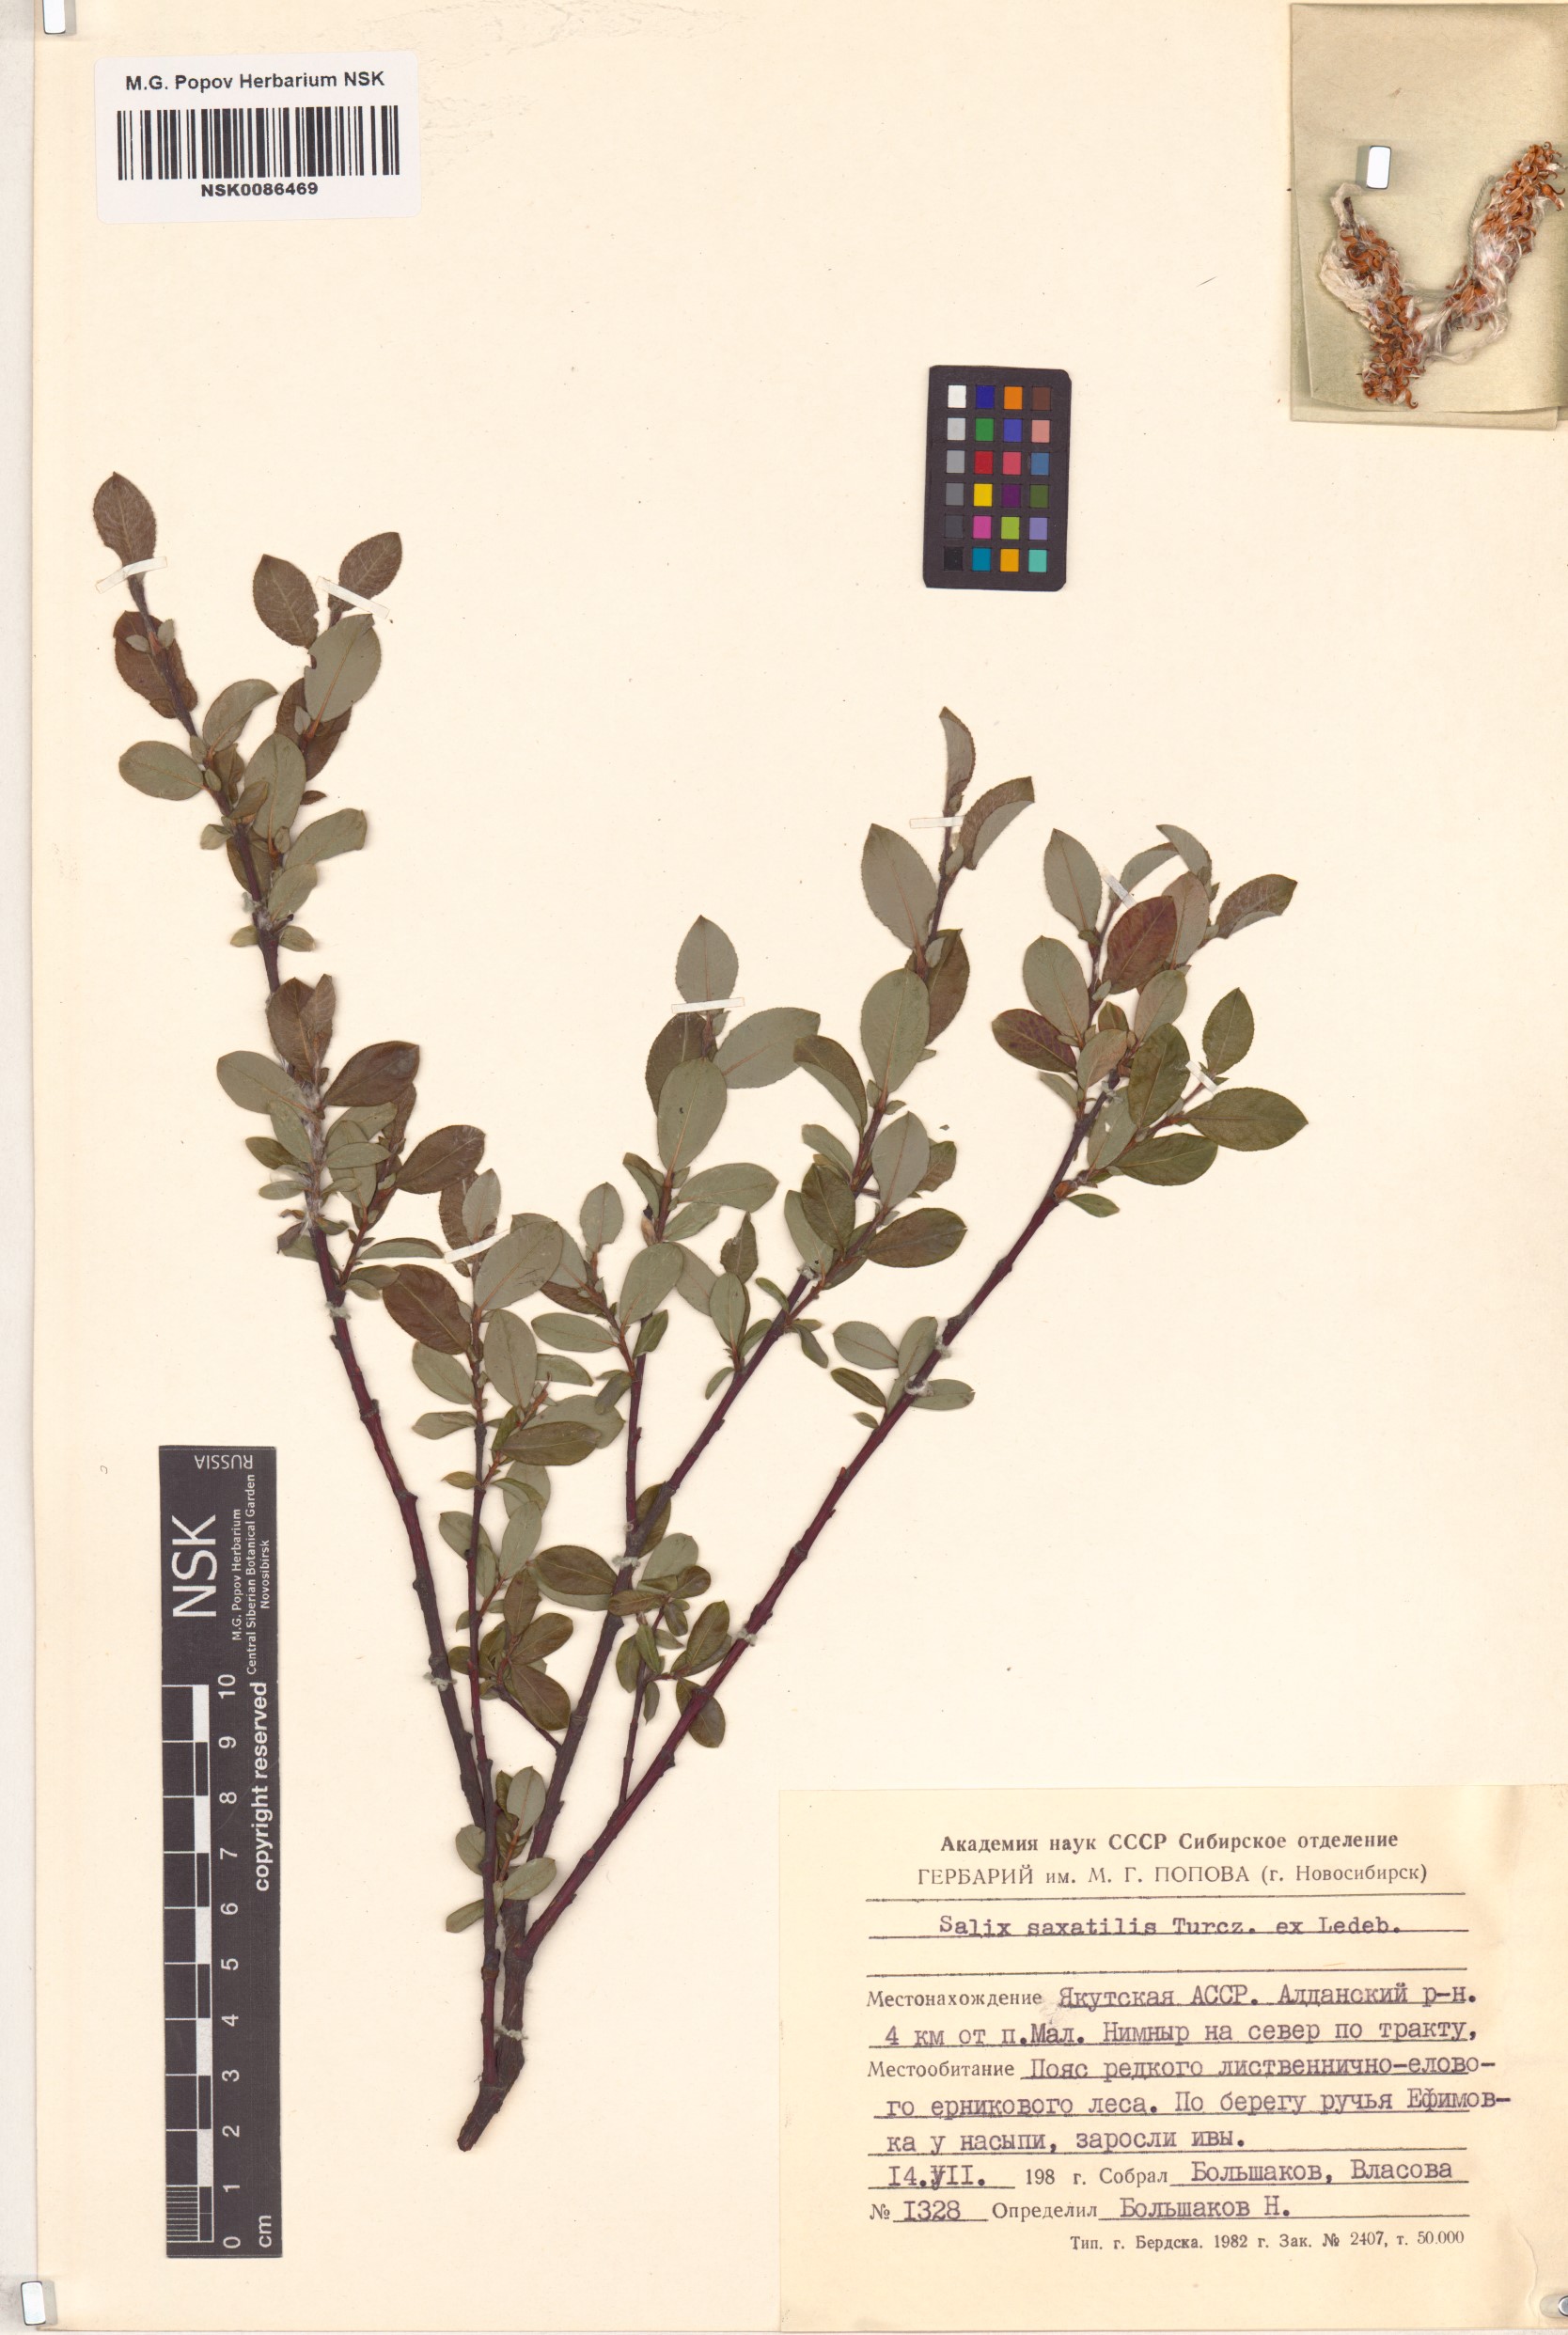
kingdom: Plantae
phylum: Tracheophyta
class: Magnoliopsida
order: Malpighiales
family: Salicaceae
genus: Salix
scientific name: Salix saxatilis
